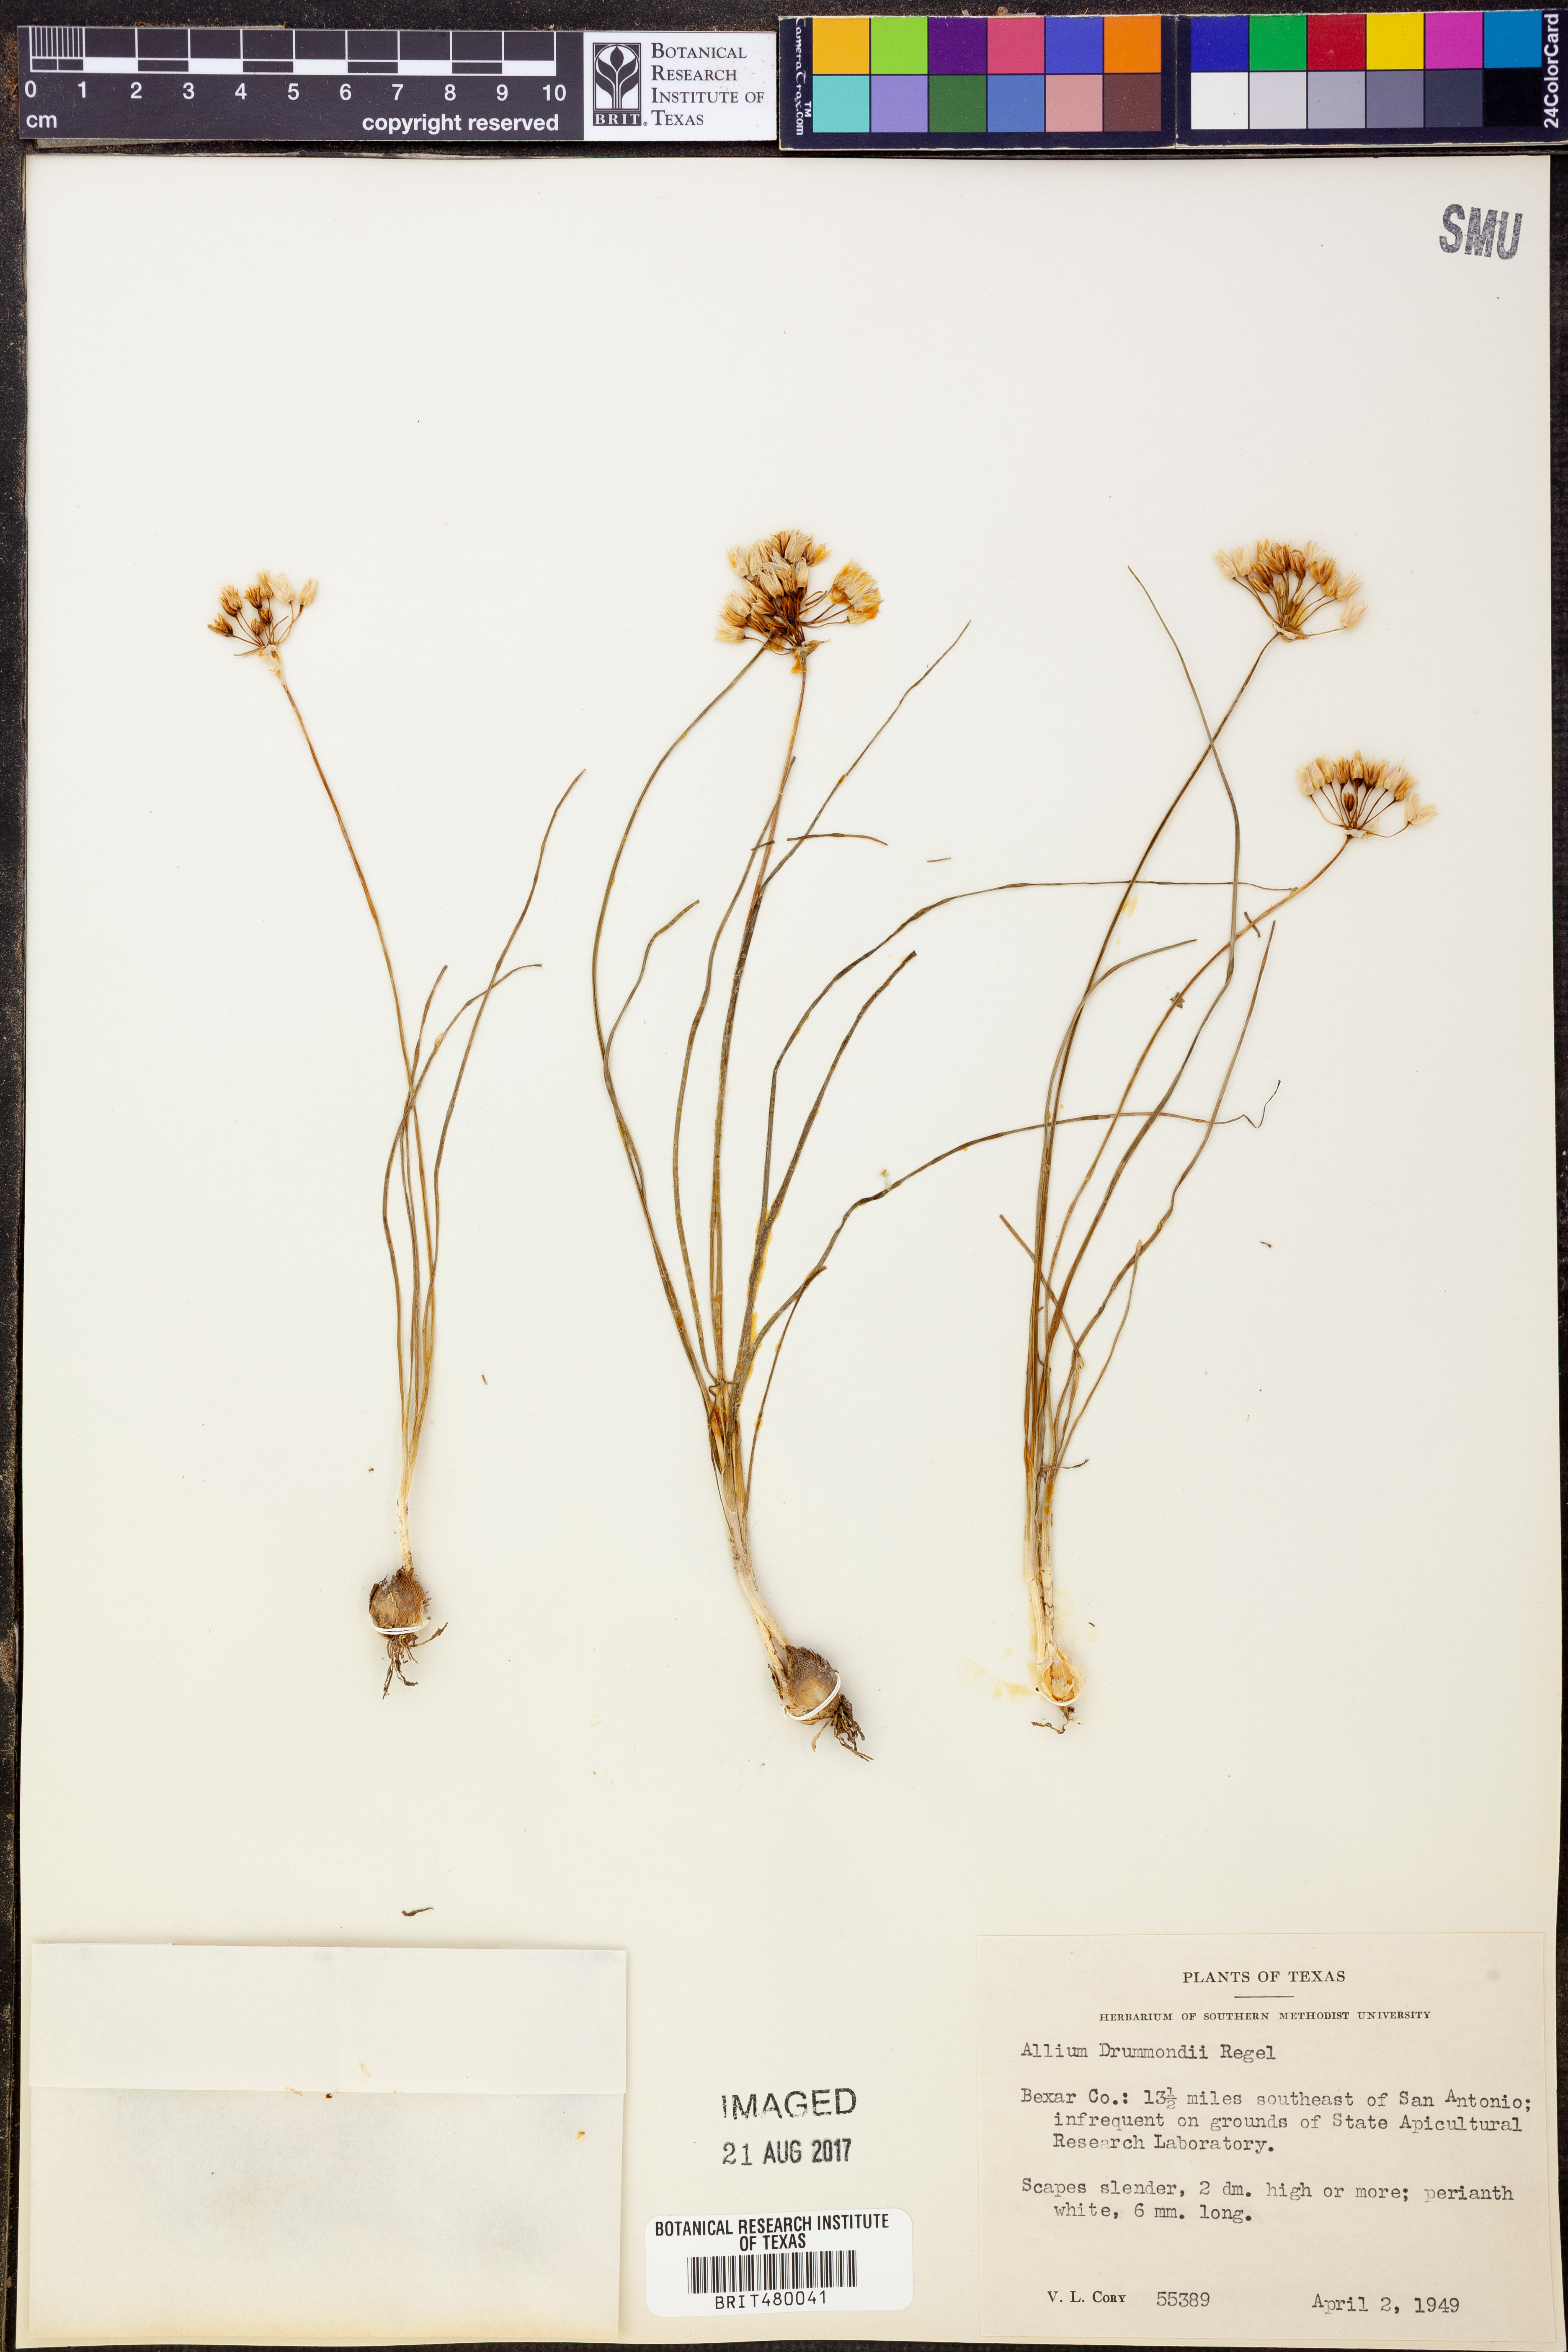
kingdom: Plantae
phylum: Tracheophyta
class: Liliopsida
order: Asparagales
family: Amaryllidaceae
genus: Allium
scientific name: Allium drummondii
